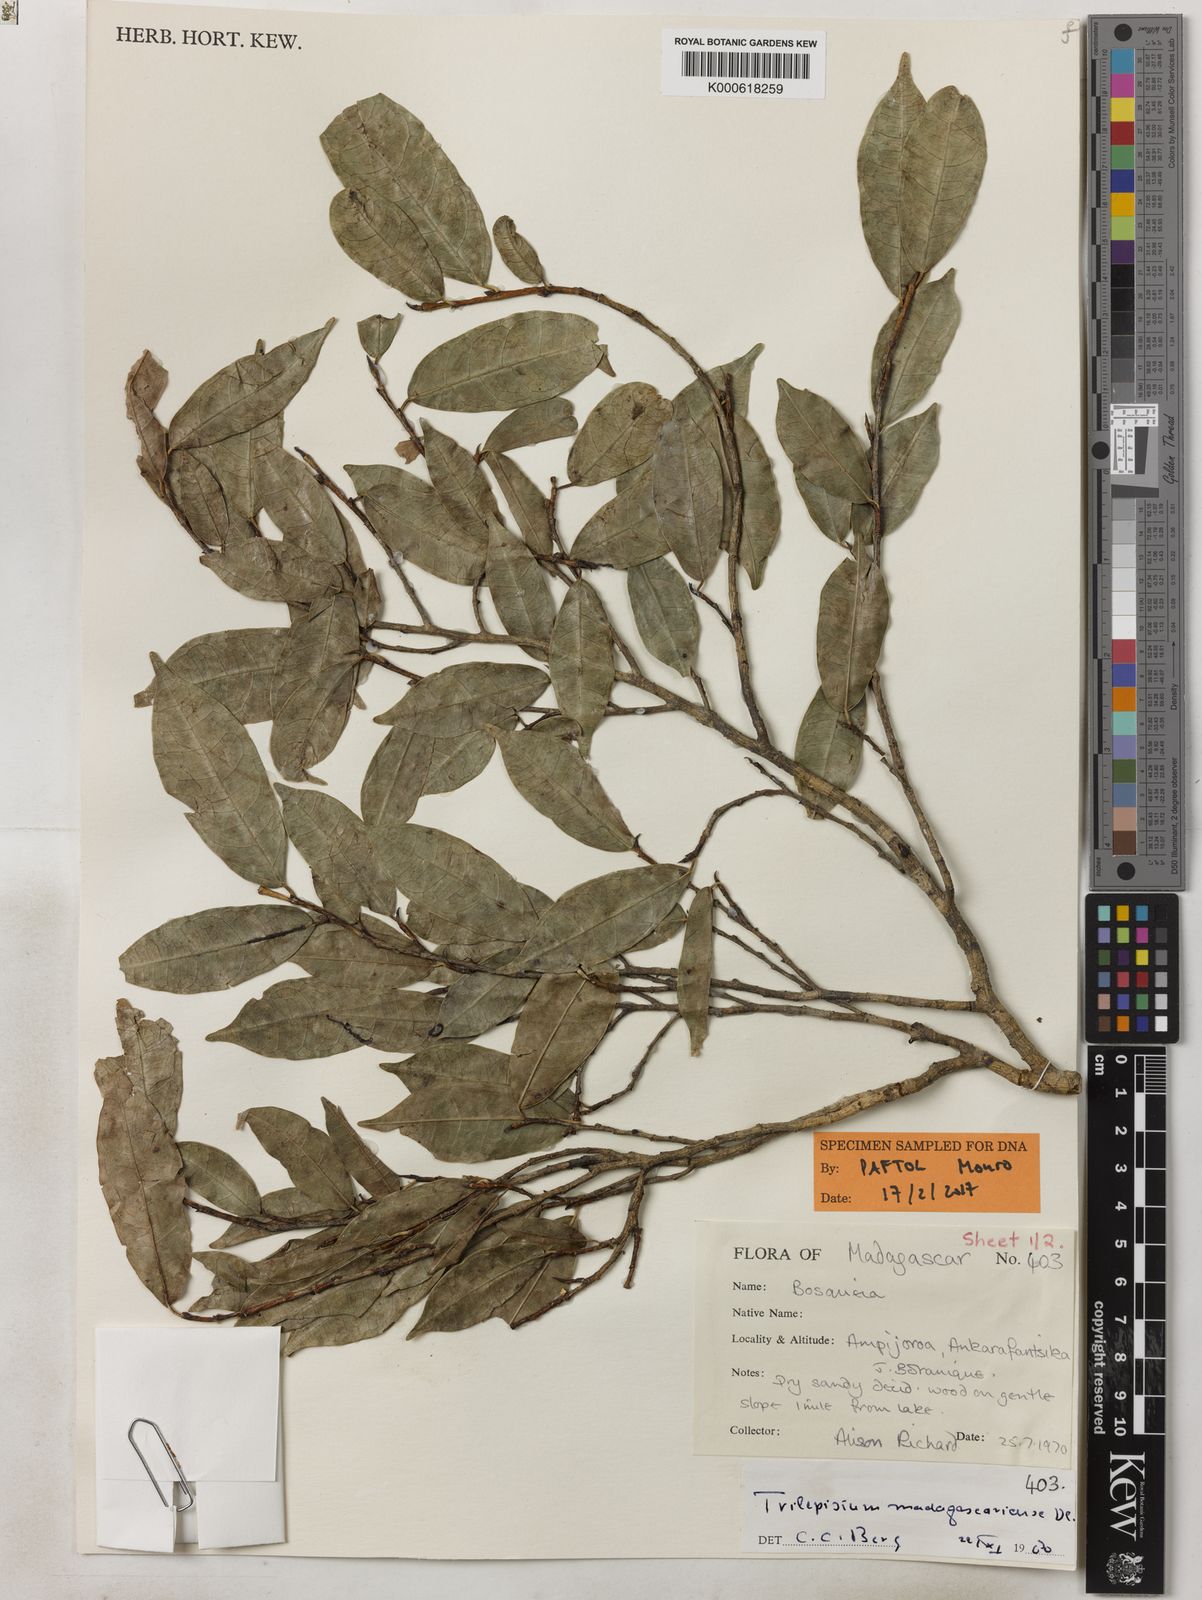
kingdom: Plantae
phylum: Tracheophyta
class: Magnoliopsida
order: Rosales
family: Moraceae
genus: Trilepisium
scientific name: Trilepisium madagascariense
